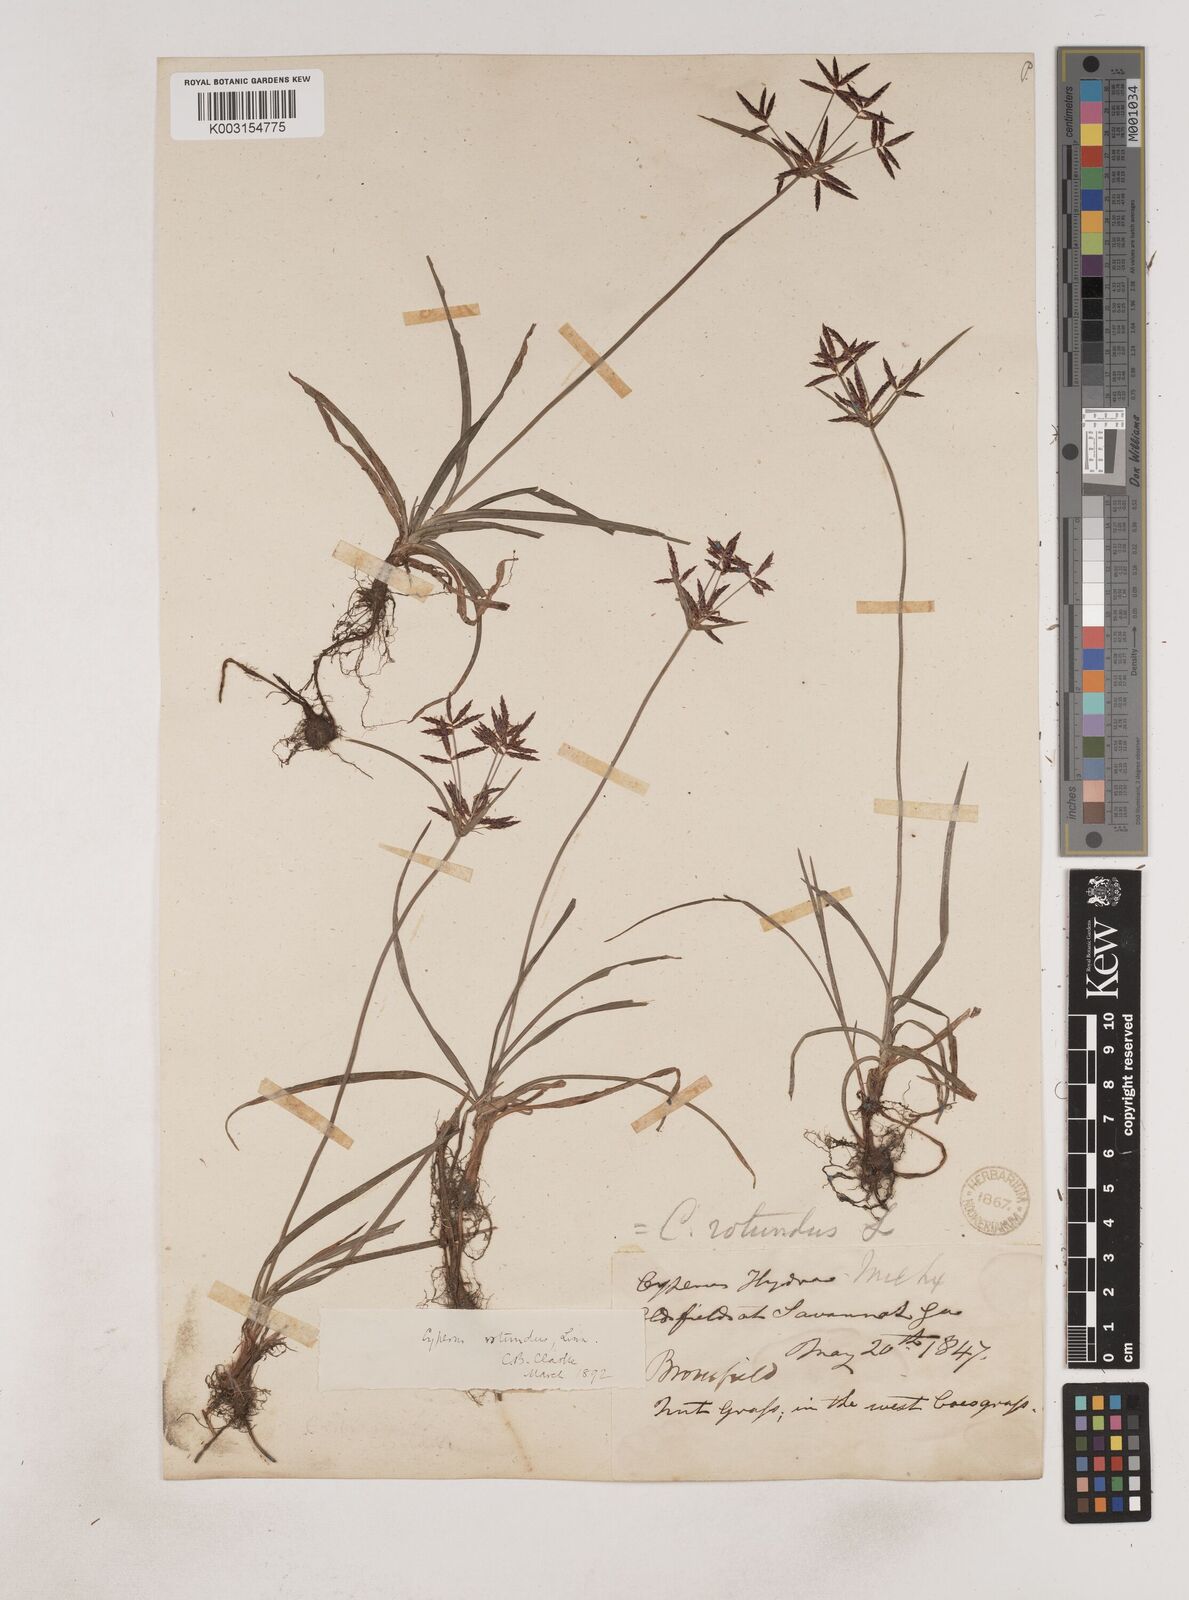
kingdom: Plantae
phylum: Tracheophyta
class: Liliopsida
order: Poales
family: Cyperaceae
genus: Cyperus
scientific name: Cyperus rotundus
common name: Nutgrass
